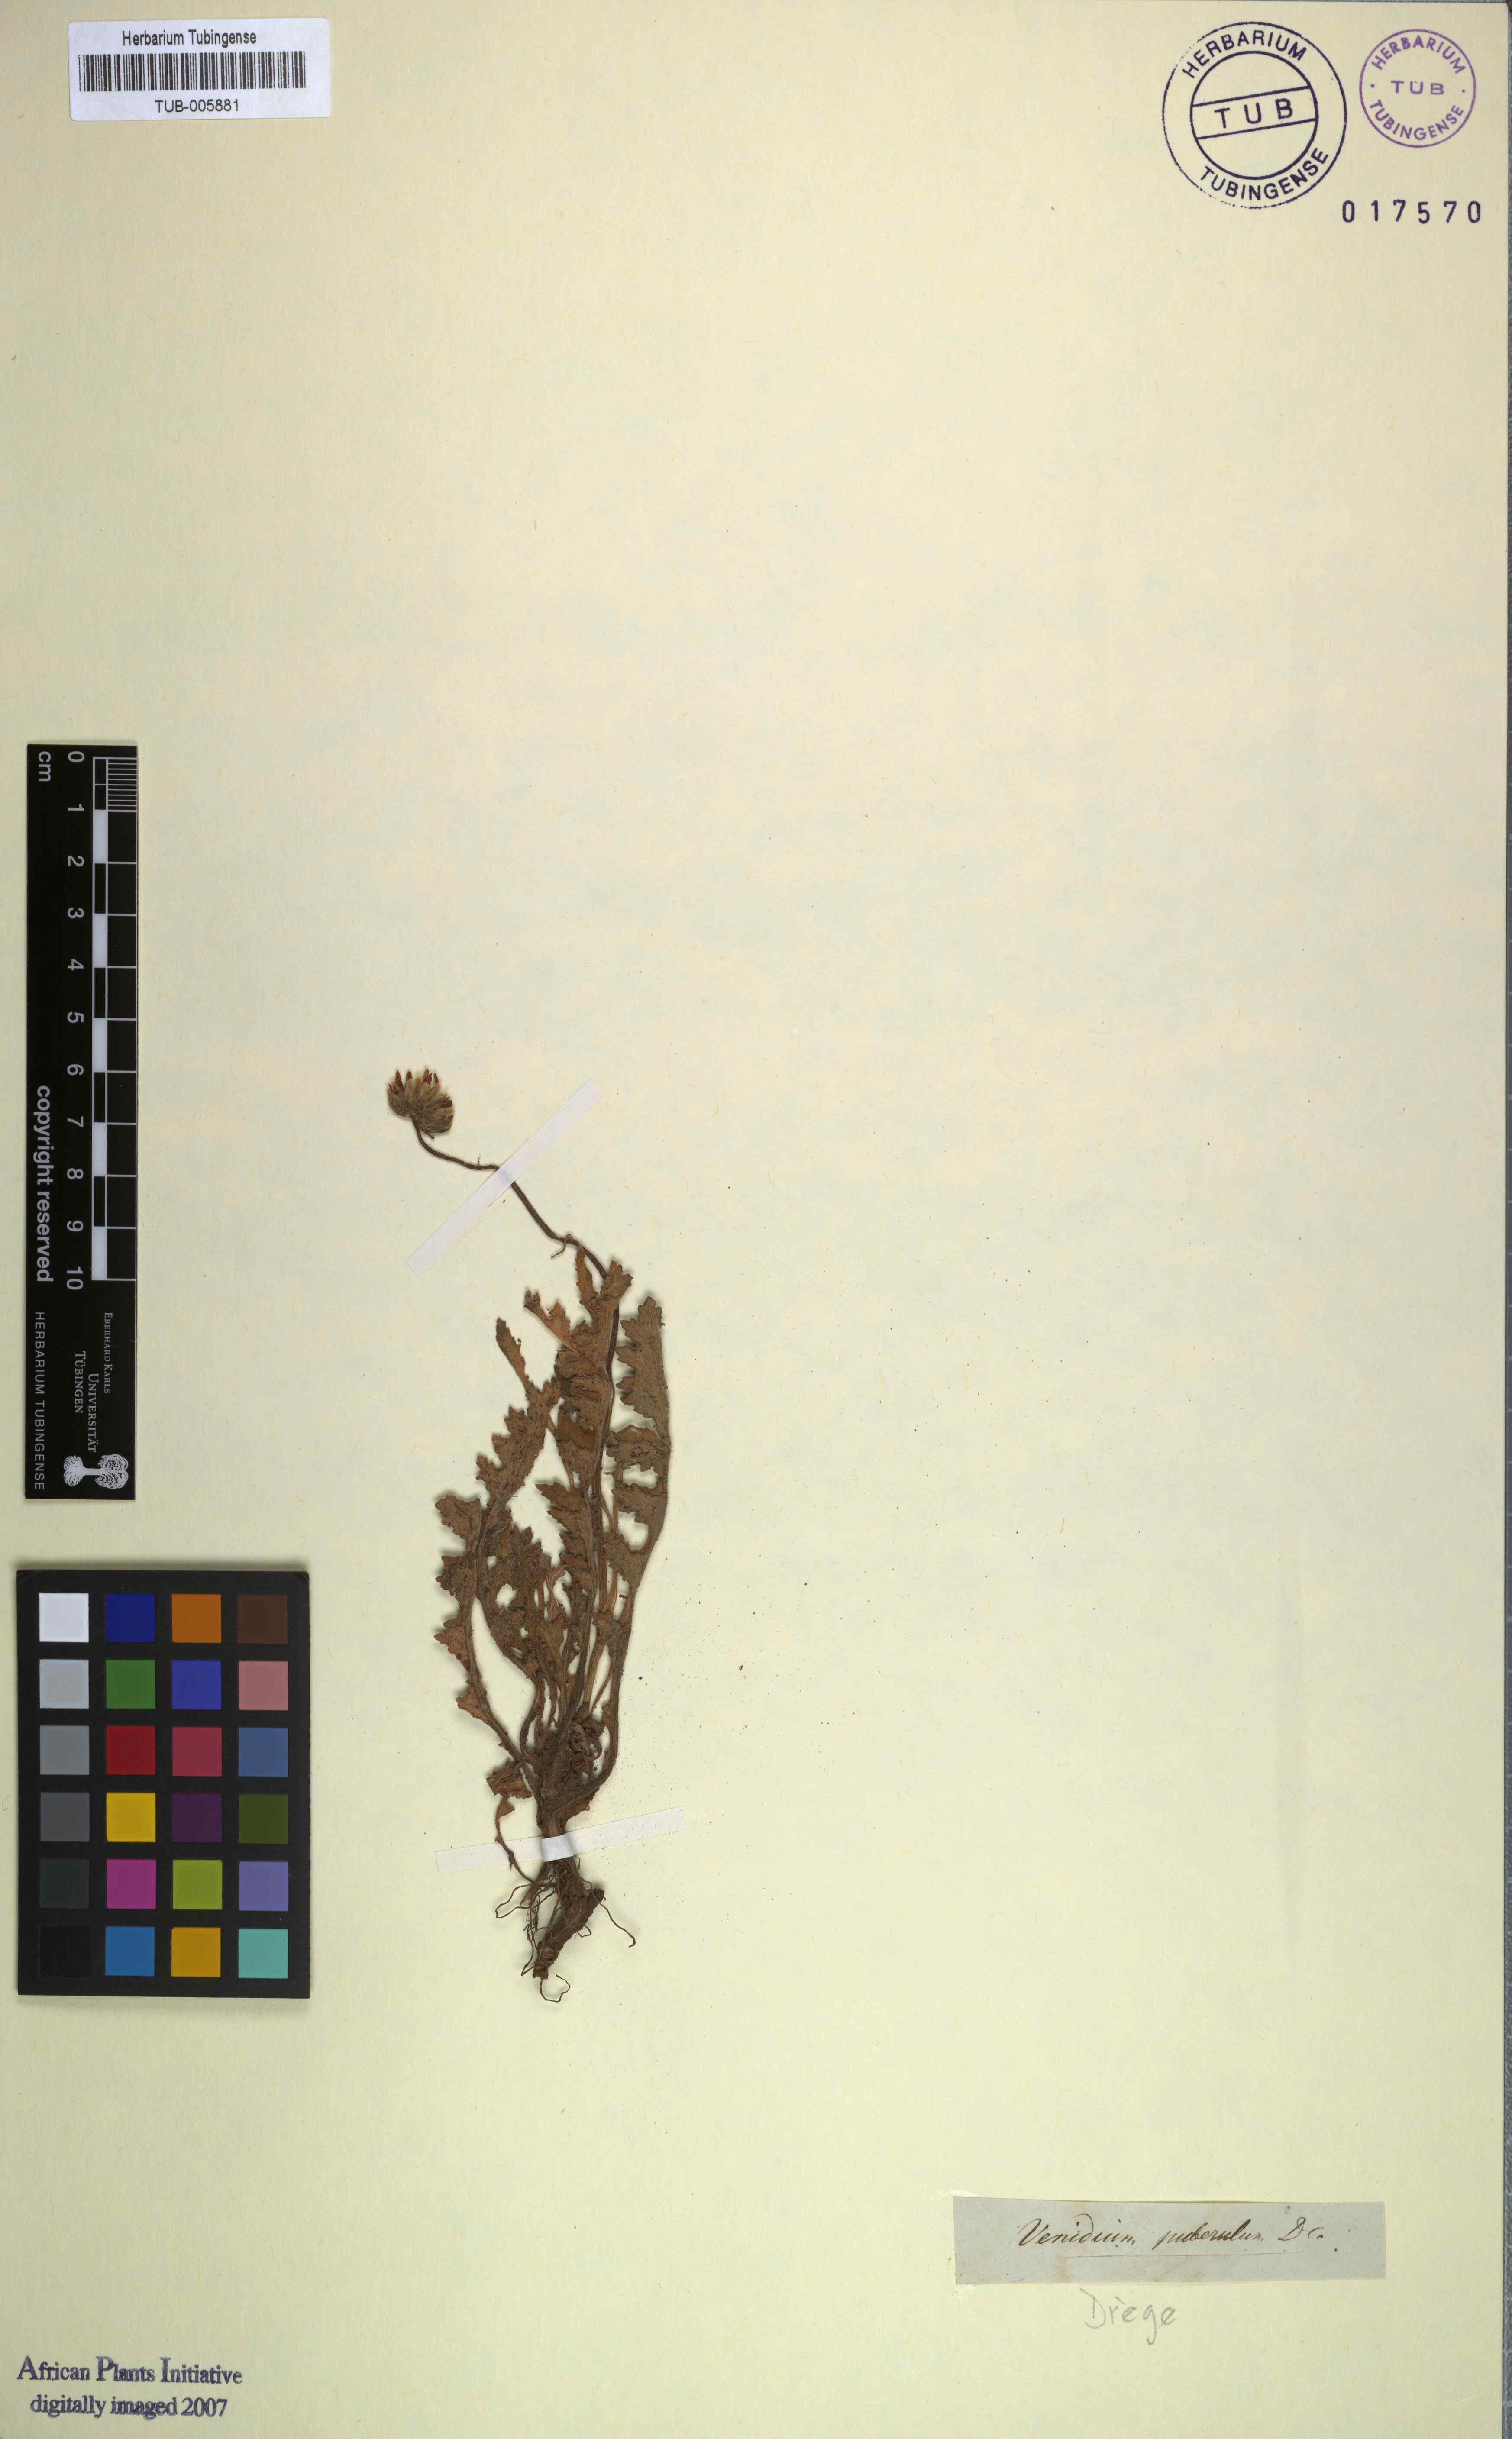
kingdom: Plantae
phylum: Tracheophyta
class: Magnoliopsida
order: Asterales
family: Asteraceae
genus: Arctotis
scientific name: Arctotis hispidula
